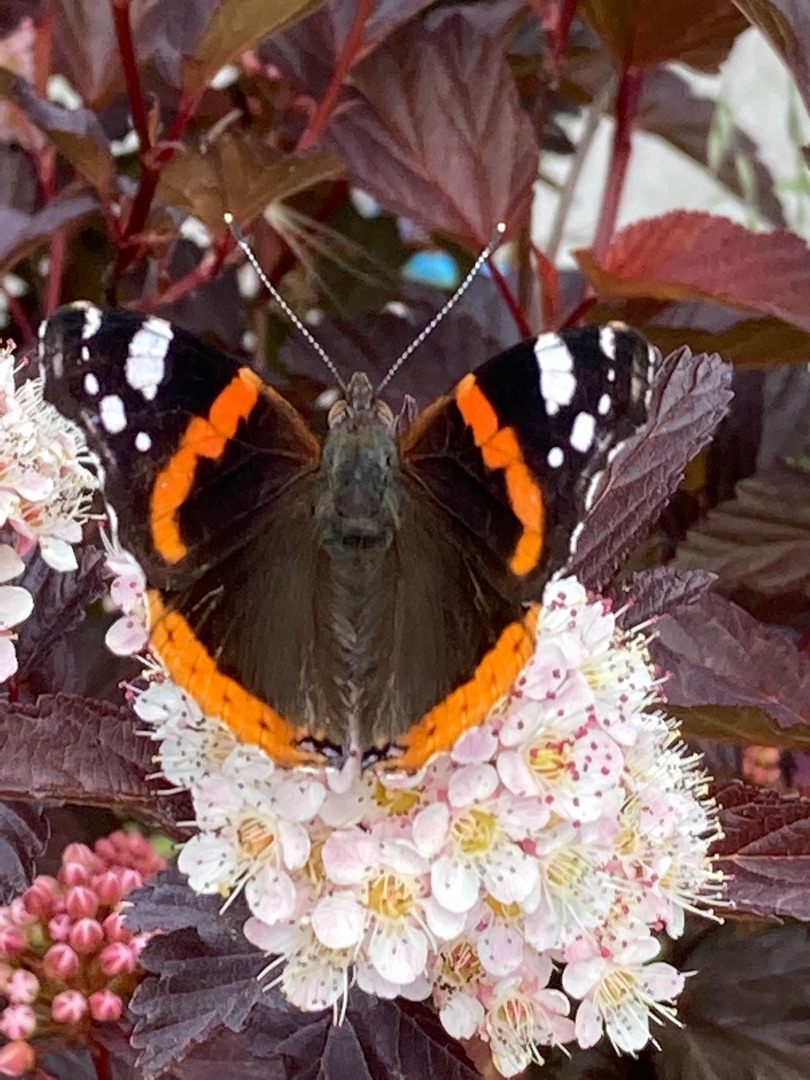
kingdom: Animalia
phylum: Arthropoda
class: Insecta
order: Lepidoptera
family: Nymphalidae
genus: Vanessa
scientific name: Vanessa atalanta
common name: Admiral
